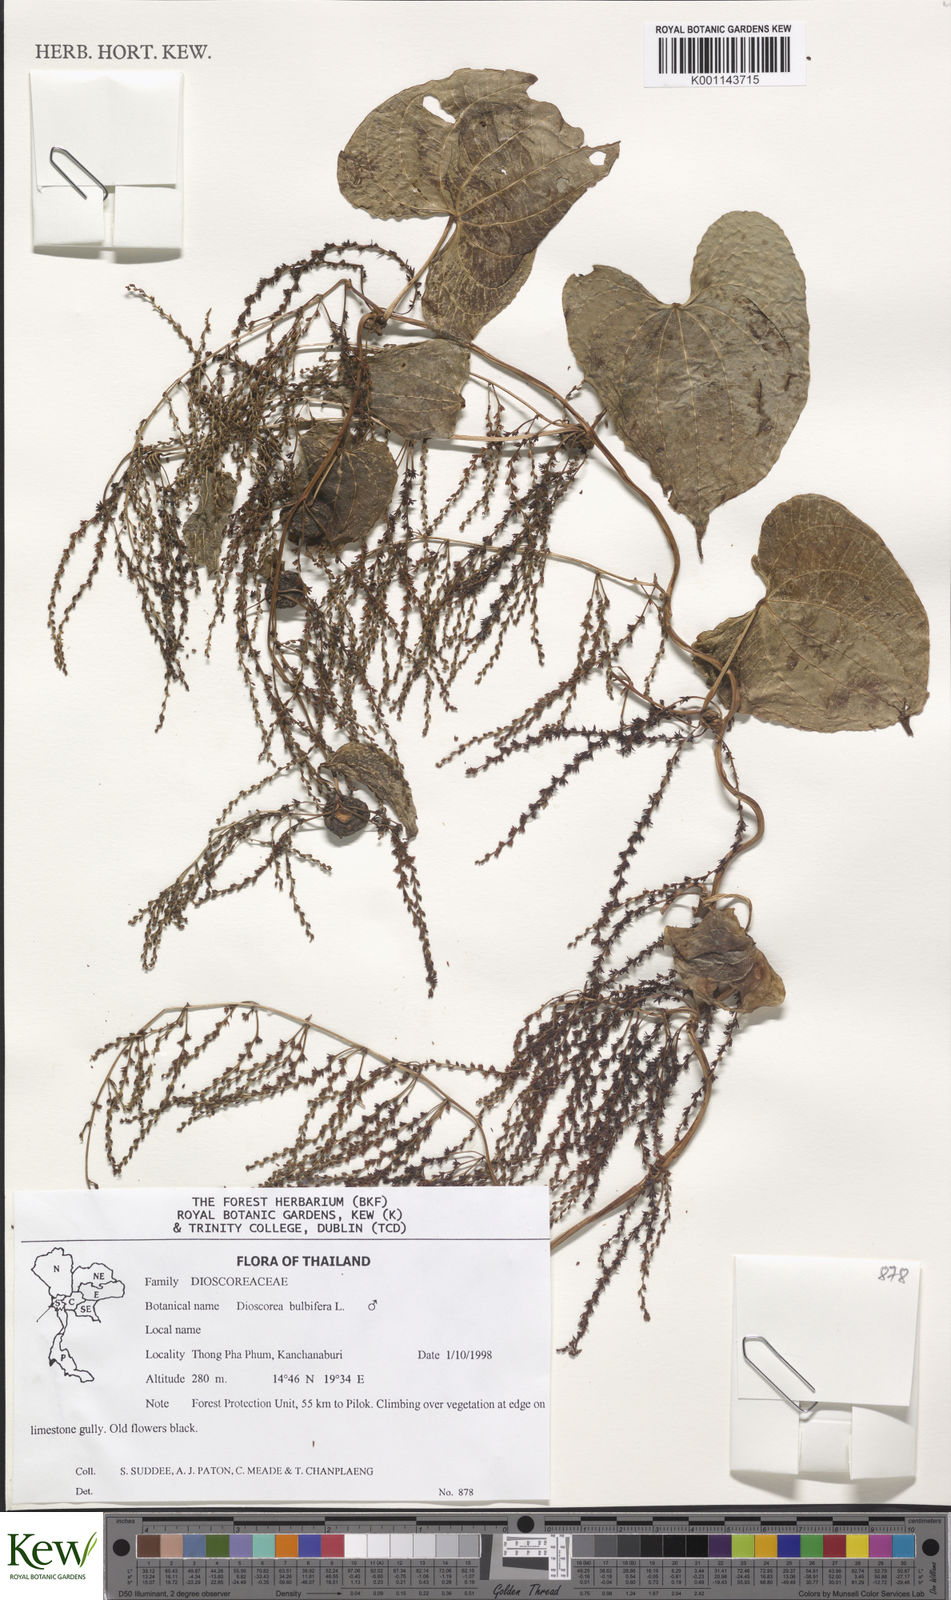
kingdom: Plantae
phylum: Tracheophyta
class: Liliopsida
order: Dioscoreales
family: Dioscoreaceae
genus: Dioscorea
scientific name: Dioscorea bulbifera
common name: Air yam
